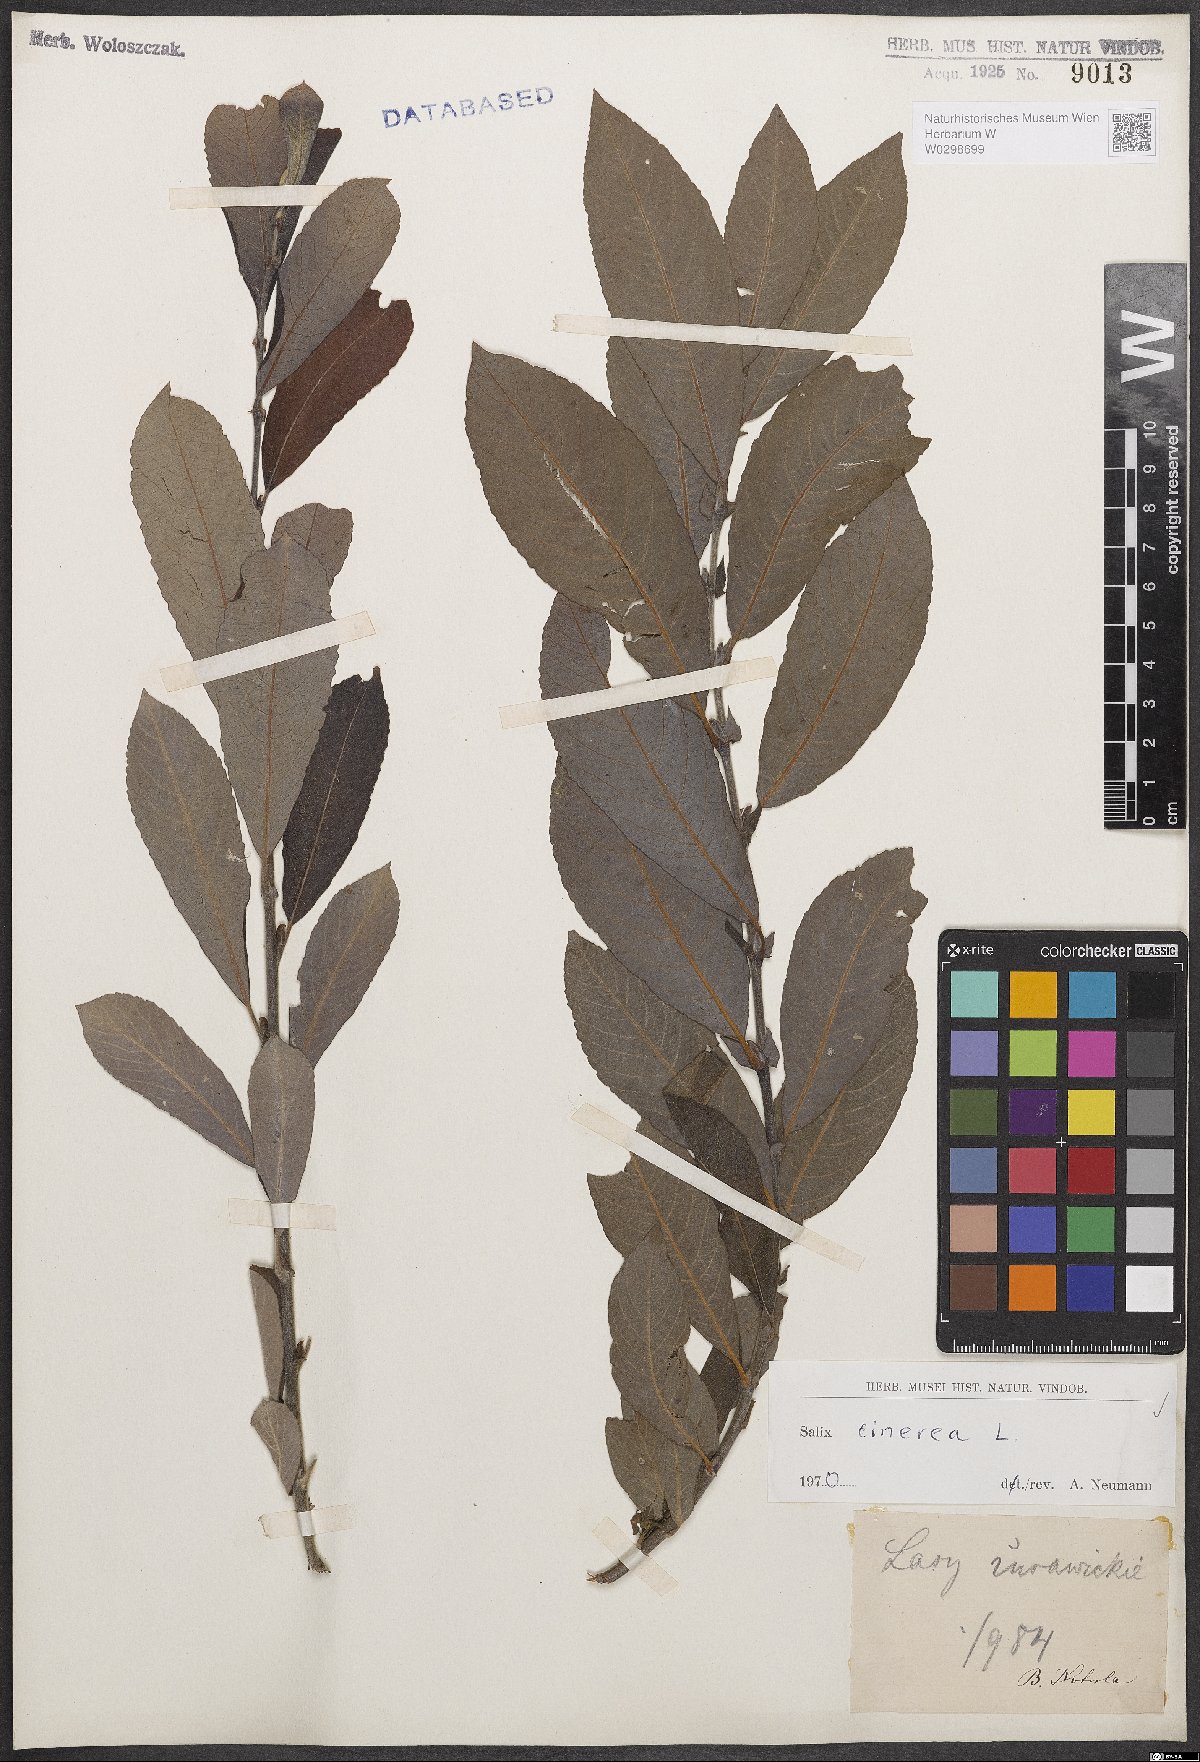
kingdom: Plantae
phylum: Tracheophyta
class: Magnoliopsida
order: Malpighiales
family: Salicaceae
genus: Salix
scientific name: Salix cinerea
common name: Common sallow
